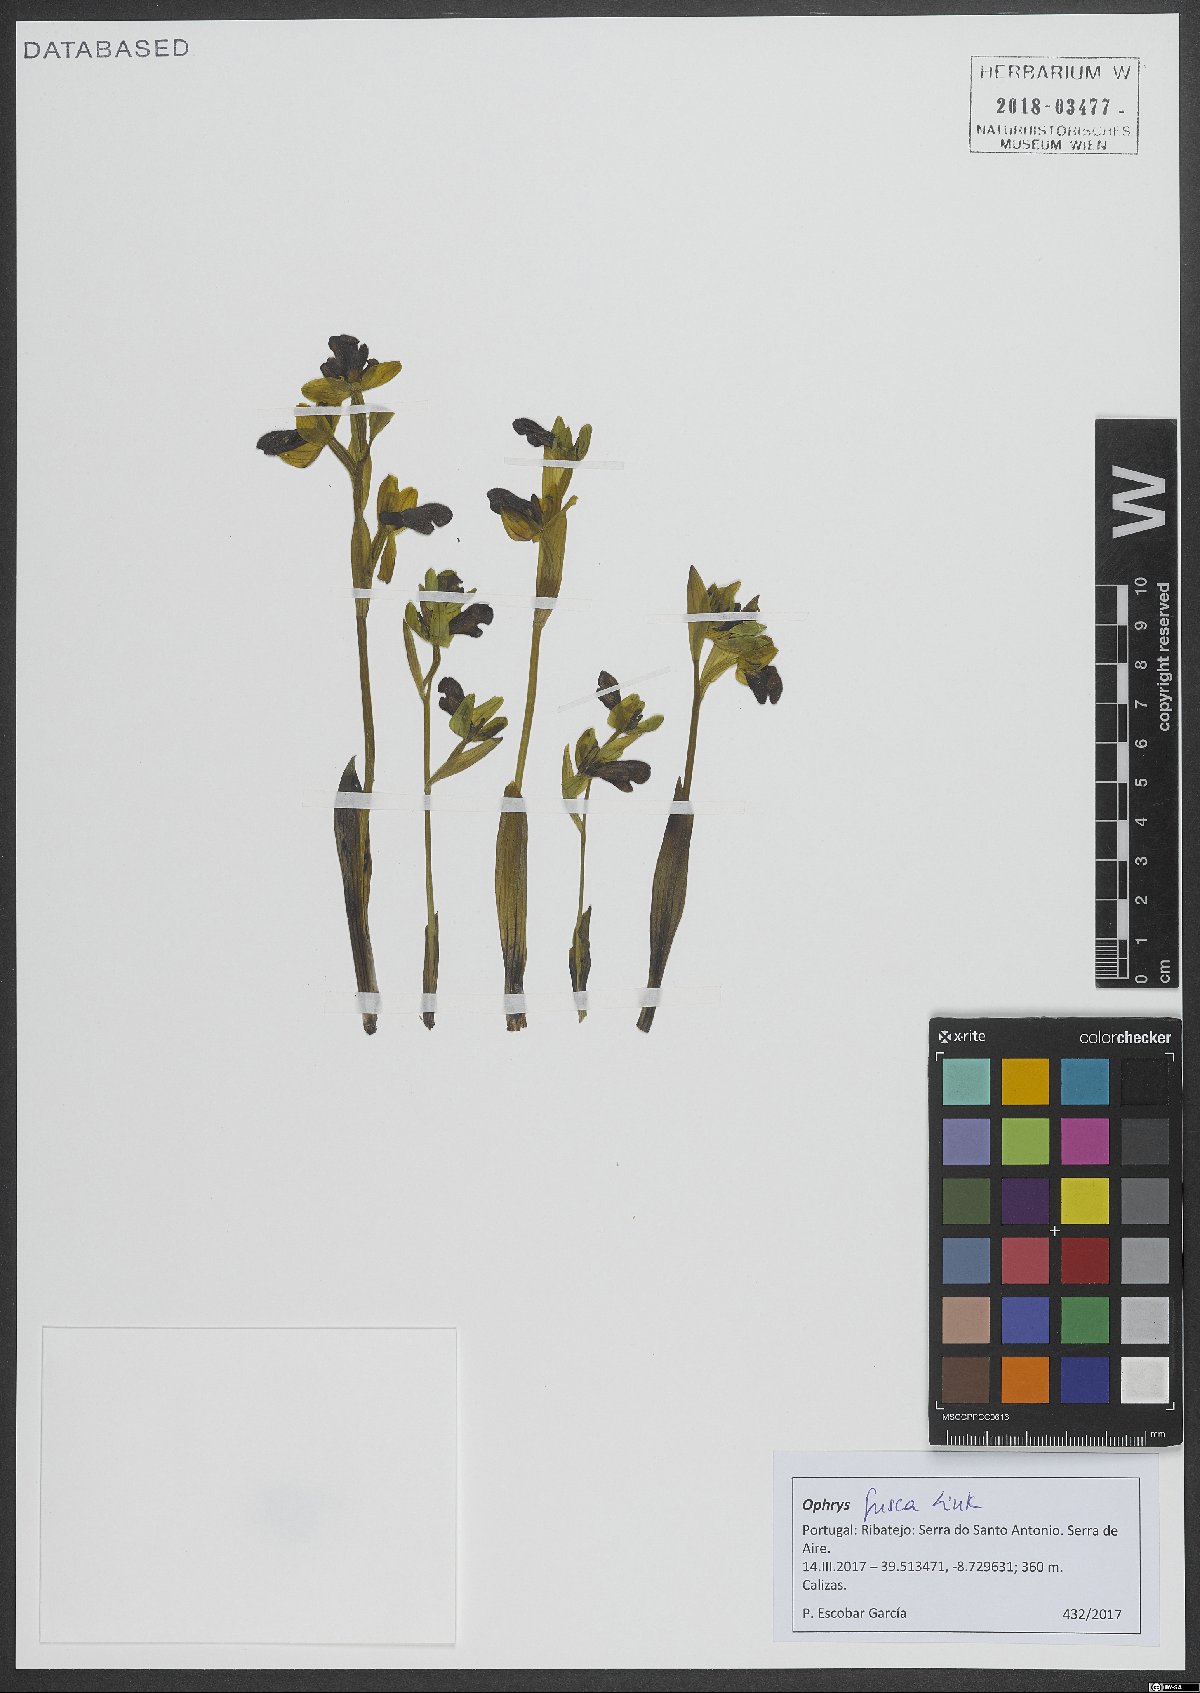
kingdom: Plantae
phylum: Tracheophyta
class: Liliopsida
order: Asparagales
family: Orchidaceae
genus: Ophrys
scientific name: Ophrys fusca
